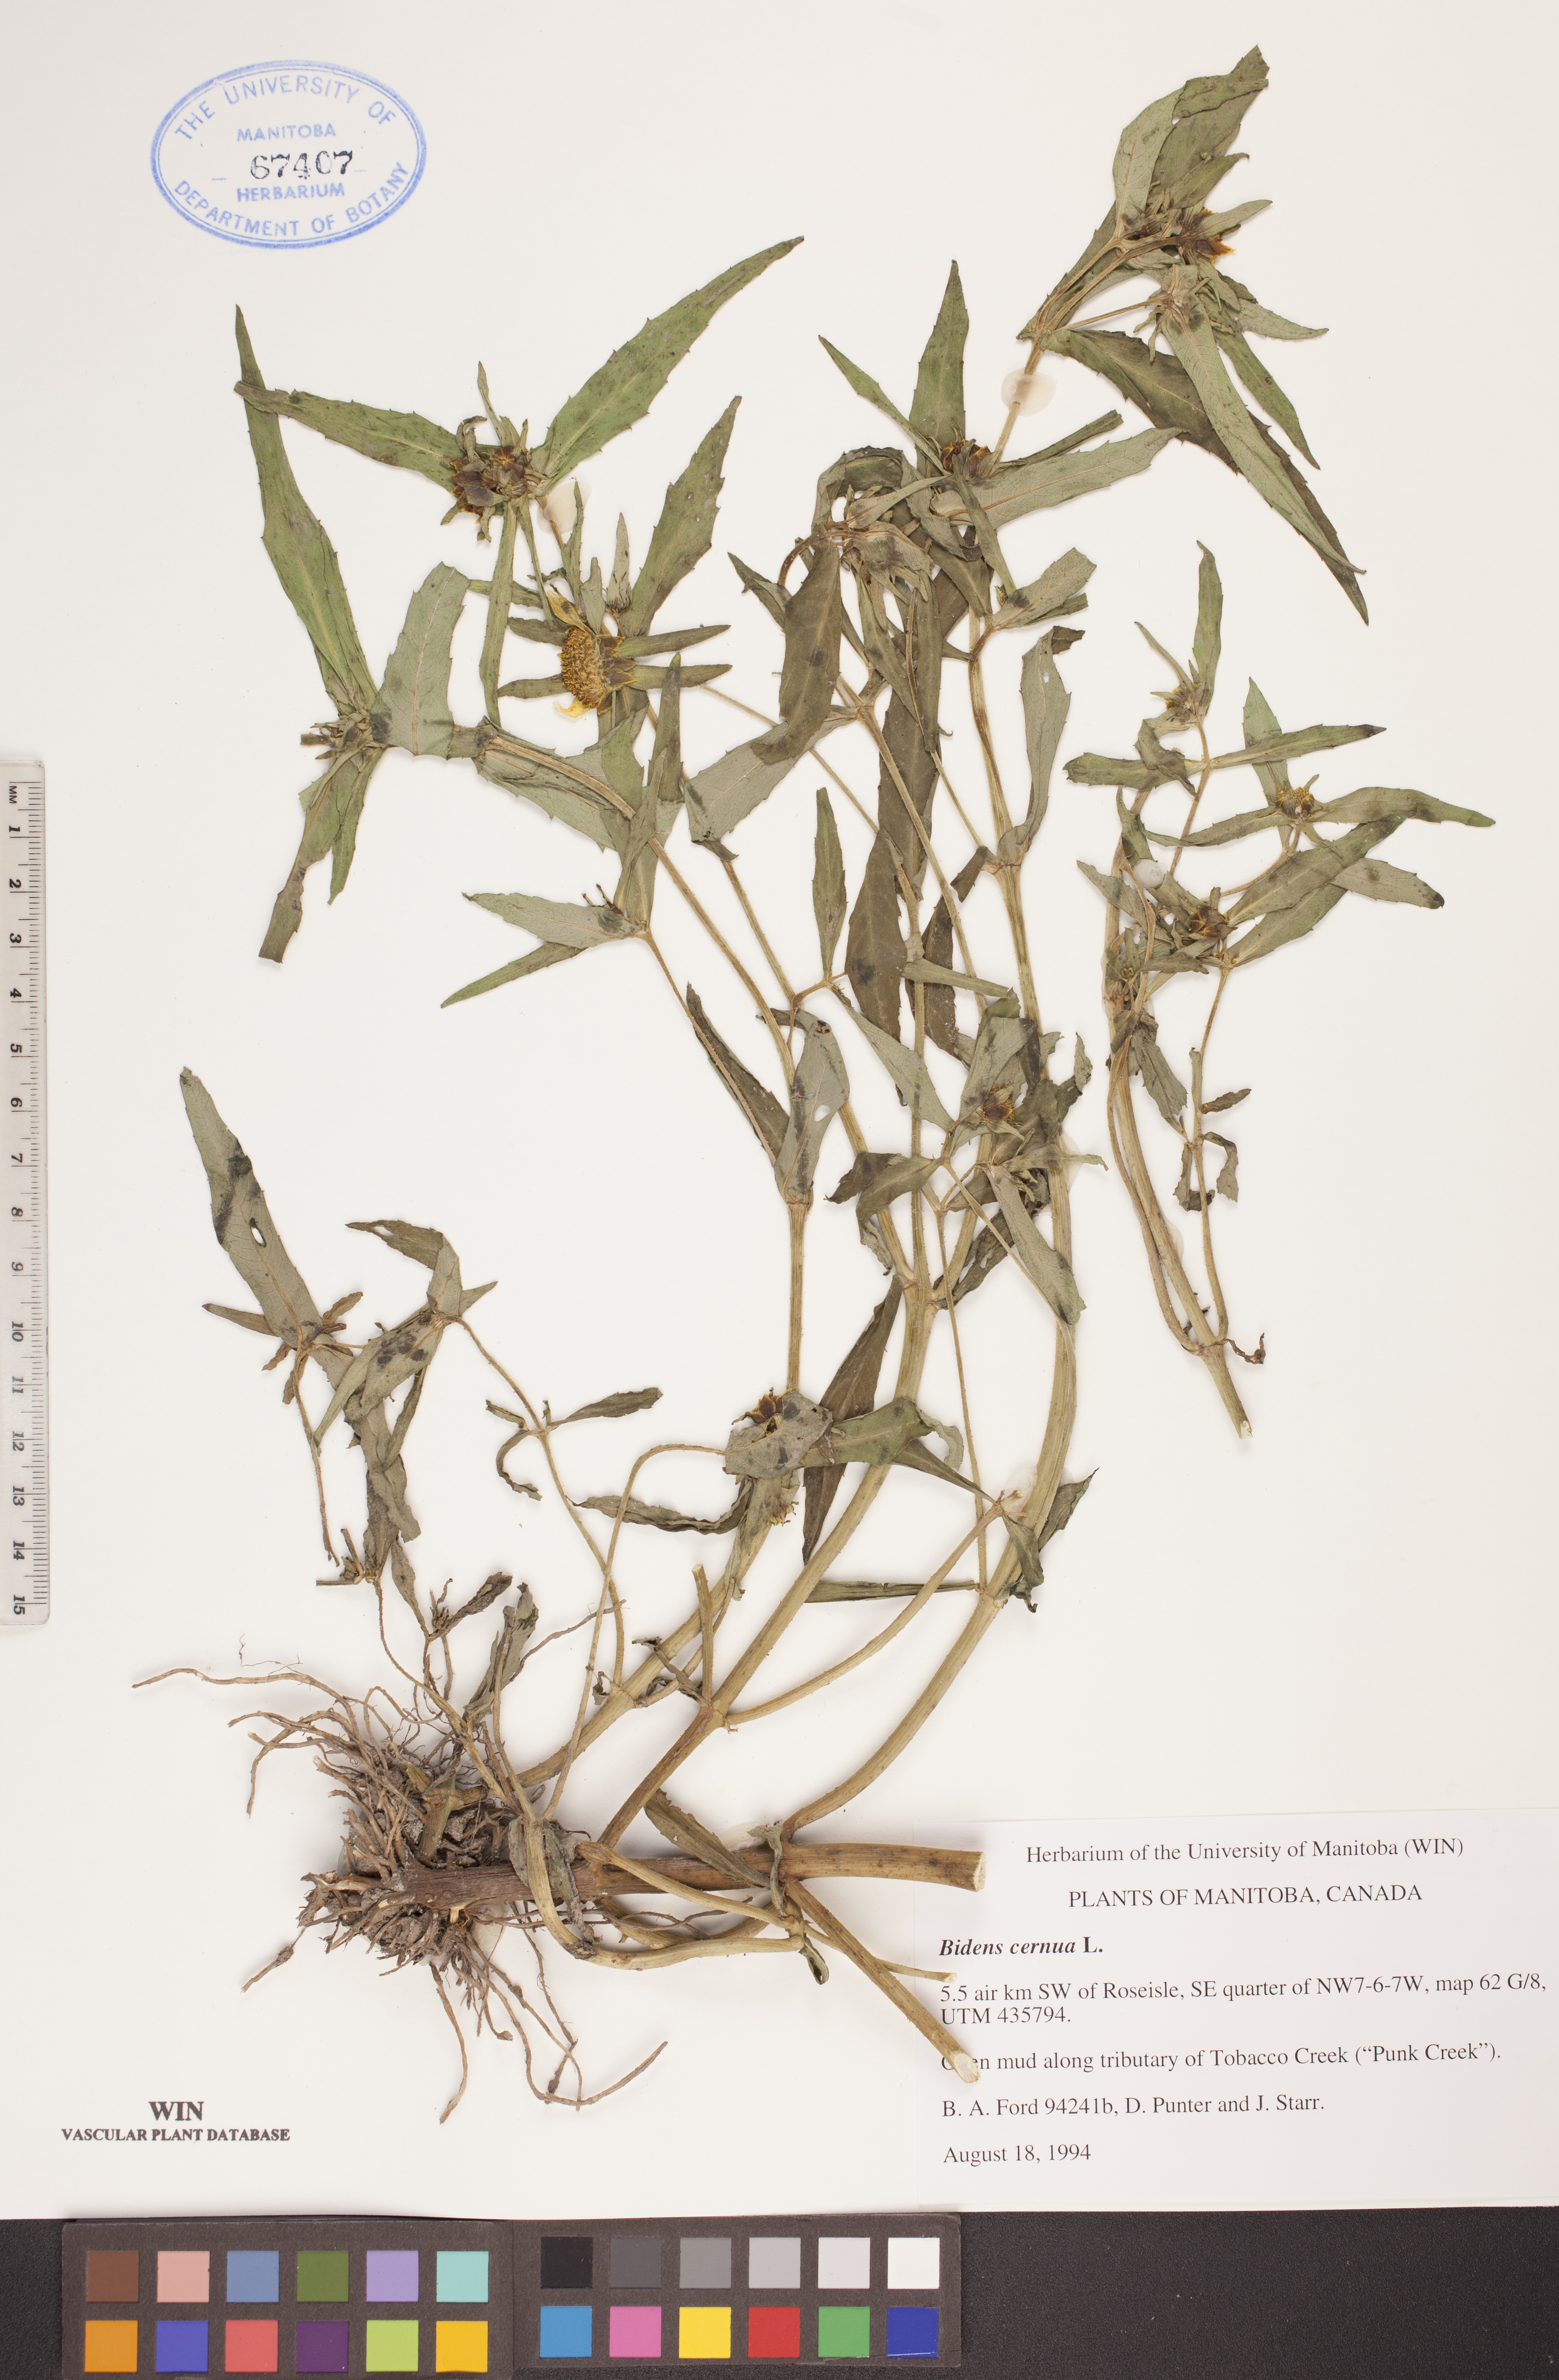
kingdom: Plantae
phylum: Tracheophyta
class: Magnoliopsida
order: Asterales
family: Asteraceae
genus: Bidens
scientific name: Bidens cernua
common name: Nodding bur-marigold
